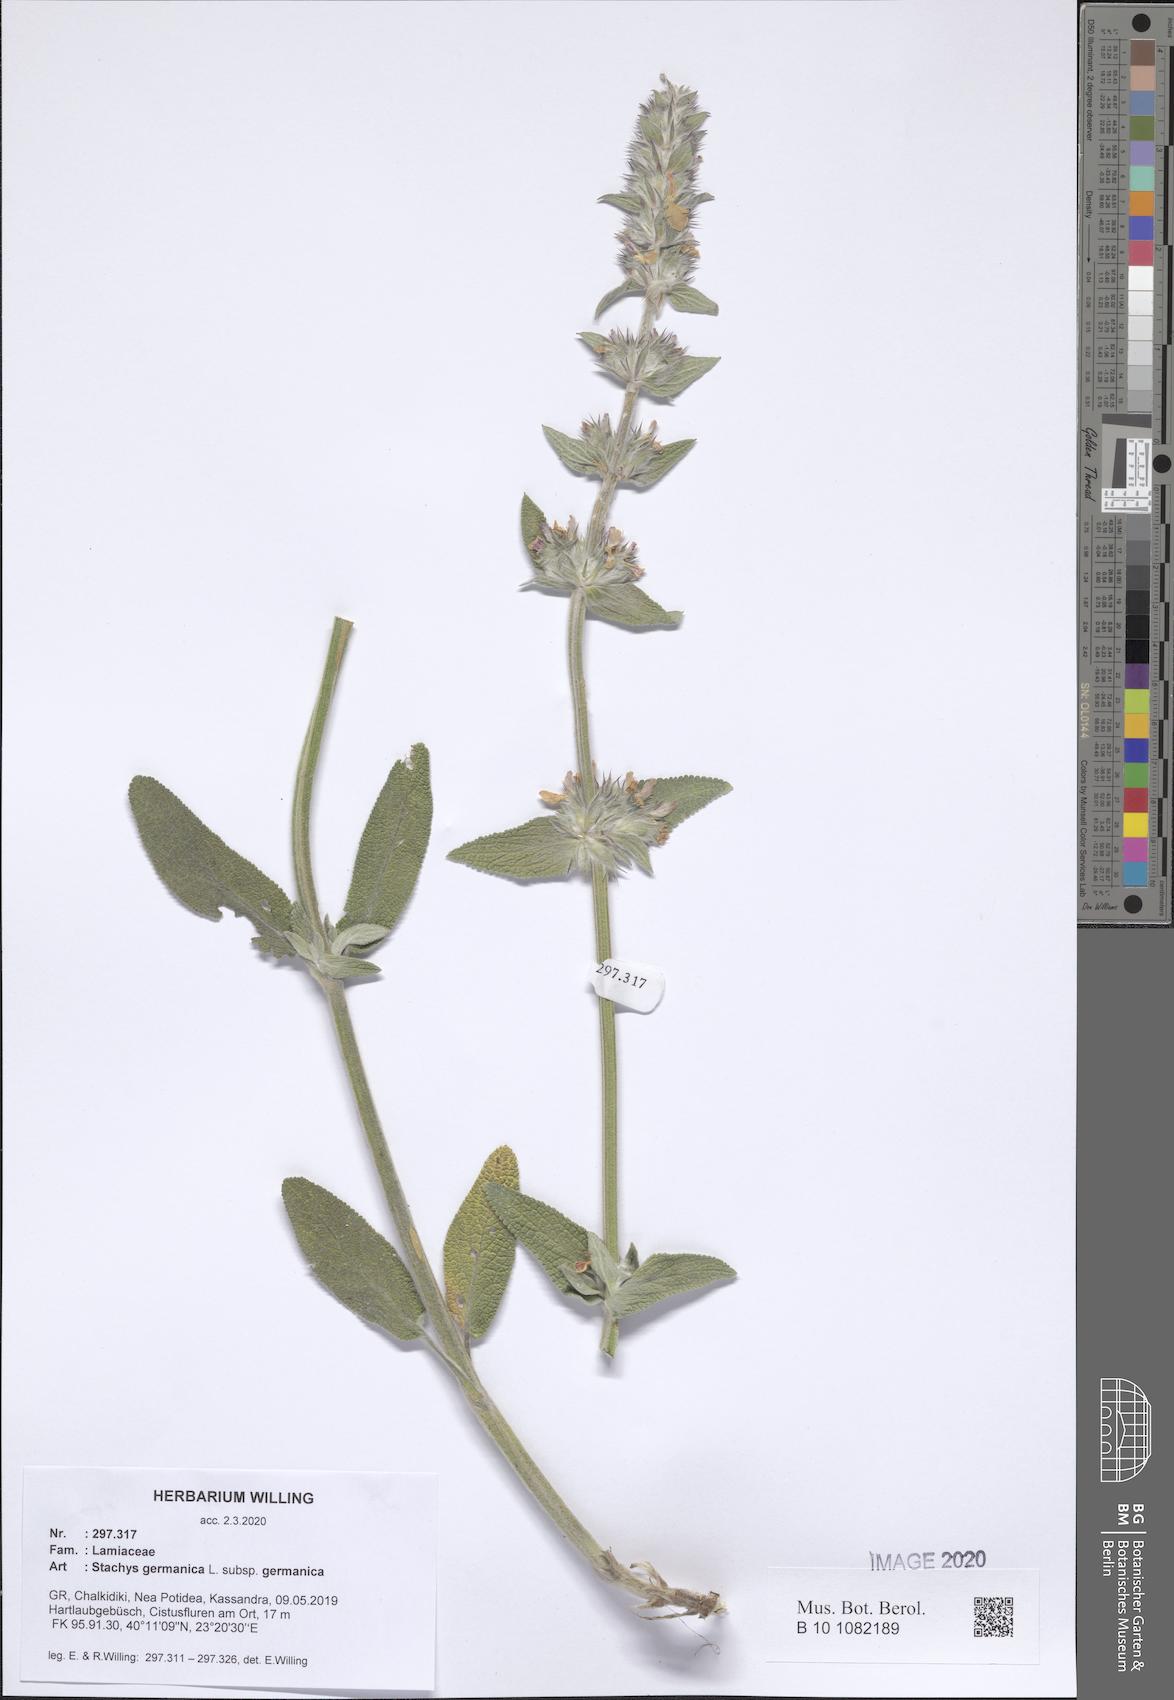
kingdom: Plantae
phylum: Tracheophyta
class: Magnoliopsida
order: Lamiales
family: Lamiaceae
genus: Stachys
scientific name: Stachys germanica
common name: Downy woundwort
